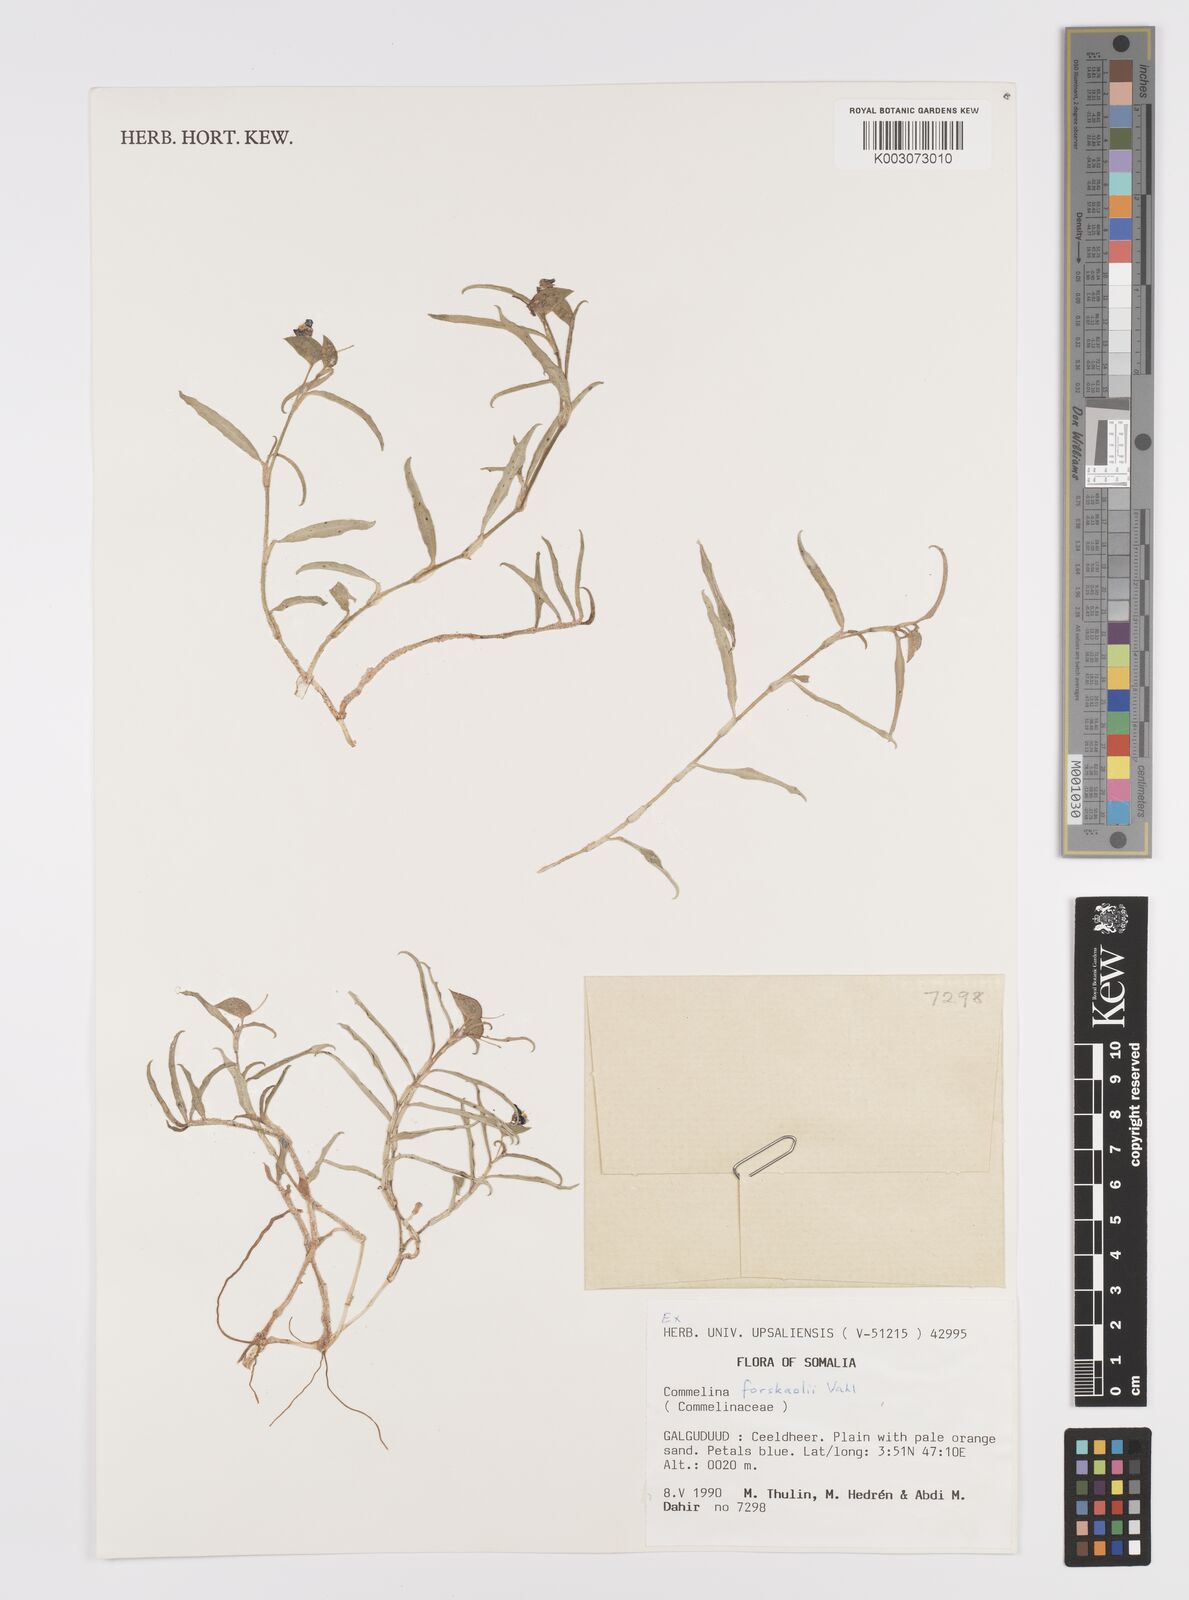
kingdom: Plantae
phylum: Tracheophyta
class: Liliopsida
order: Commelinales
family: Commelinaceae
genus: Commelina
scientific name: Commelina forskaolii
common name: Rat's ear
